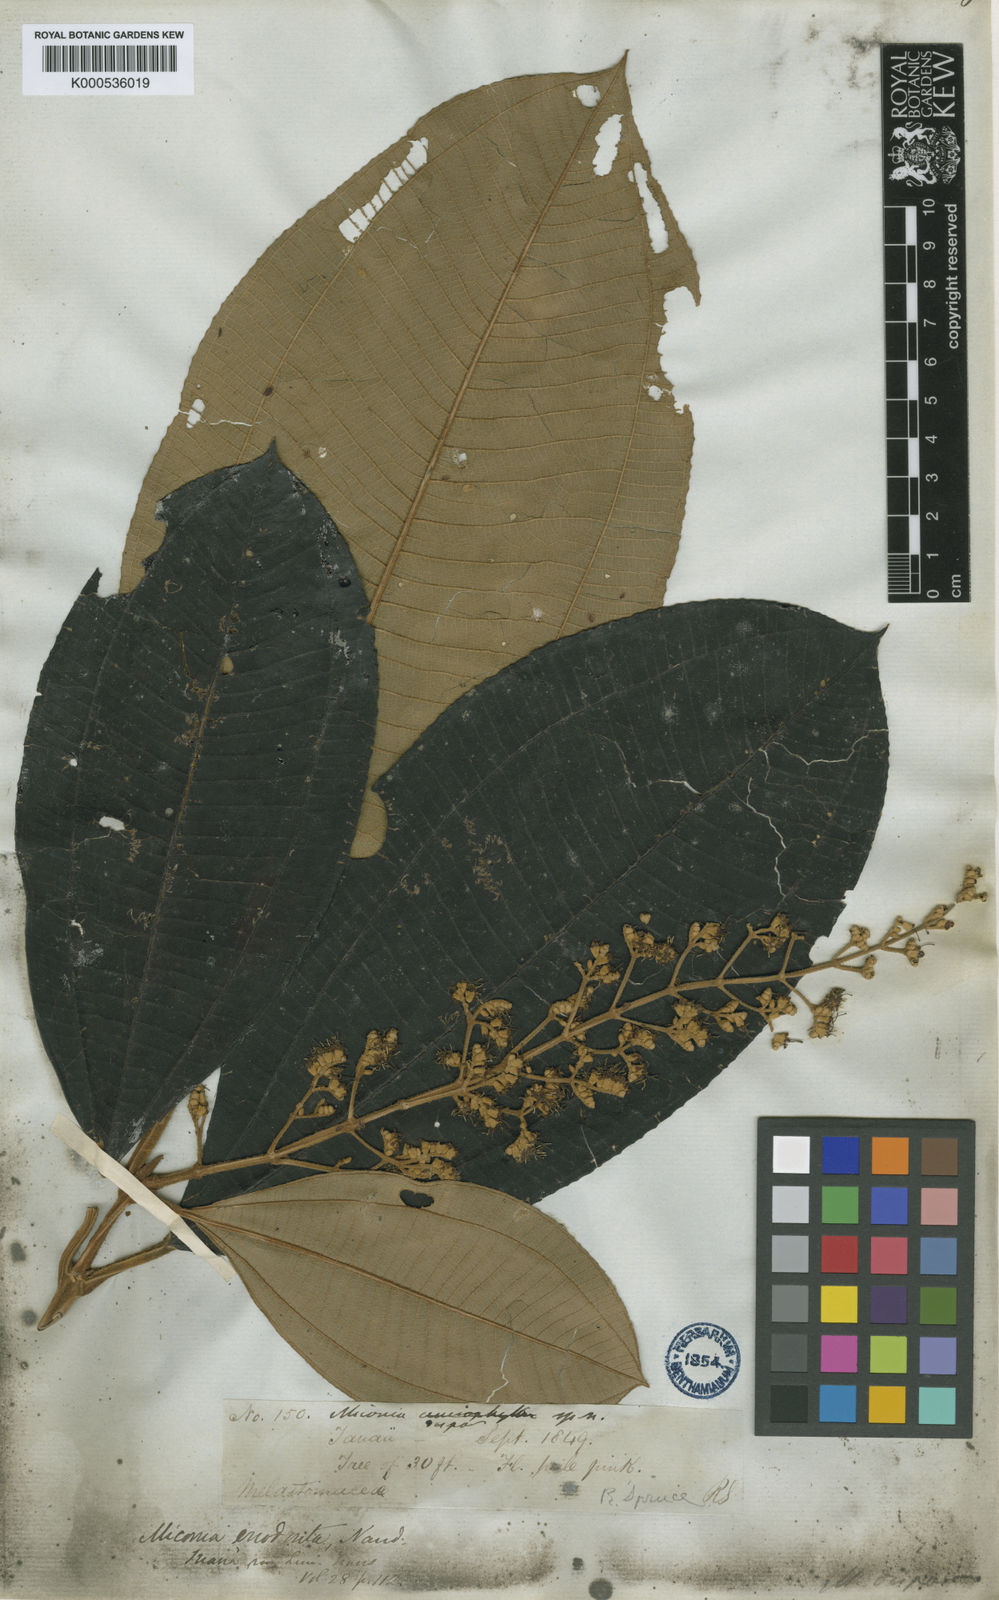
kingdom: Plantae
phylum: Tracheophyta
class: Magnoliopsida
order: Myrtales
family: Melastomataceae
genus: Miconia
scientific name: Miconia dispar
